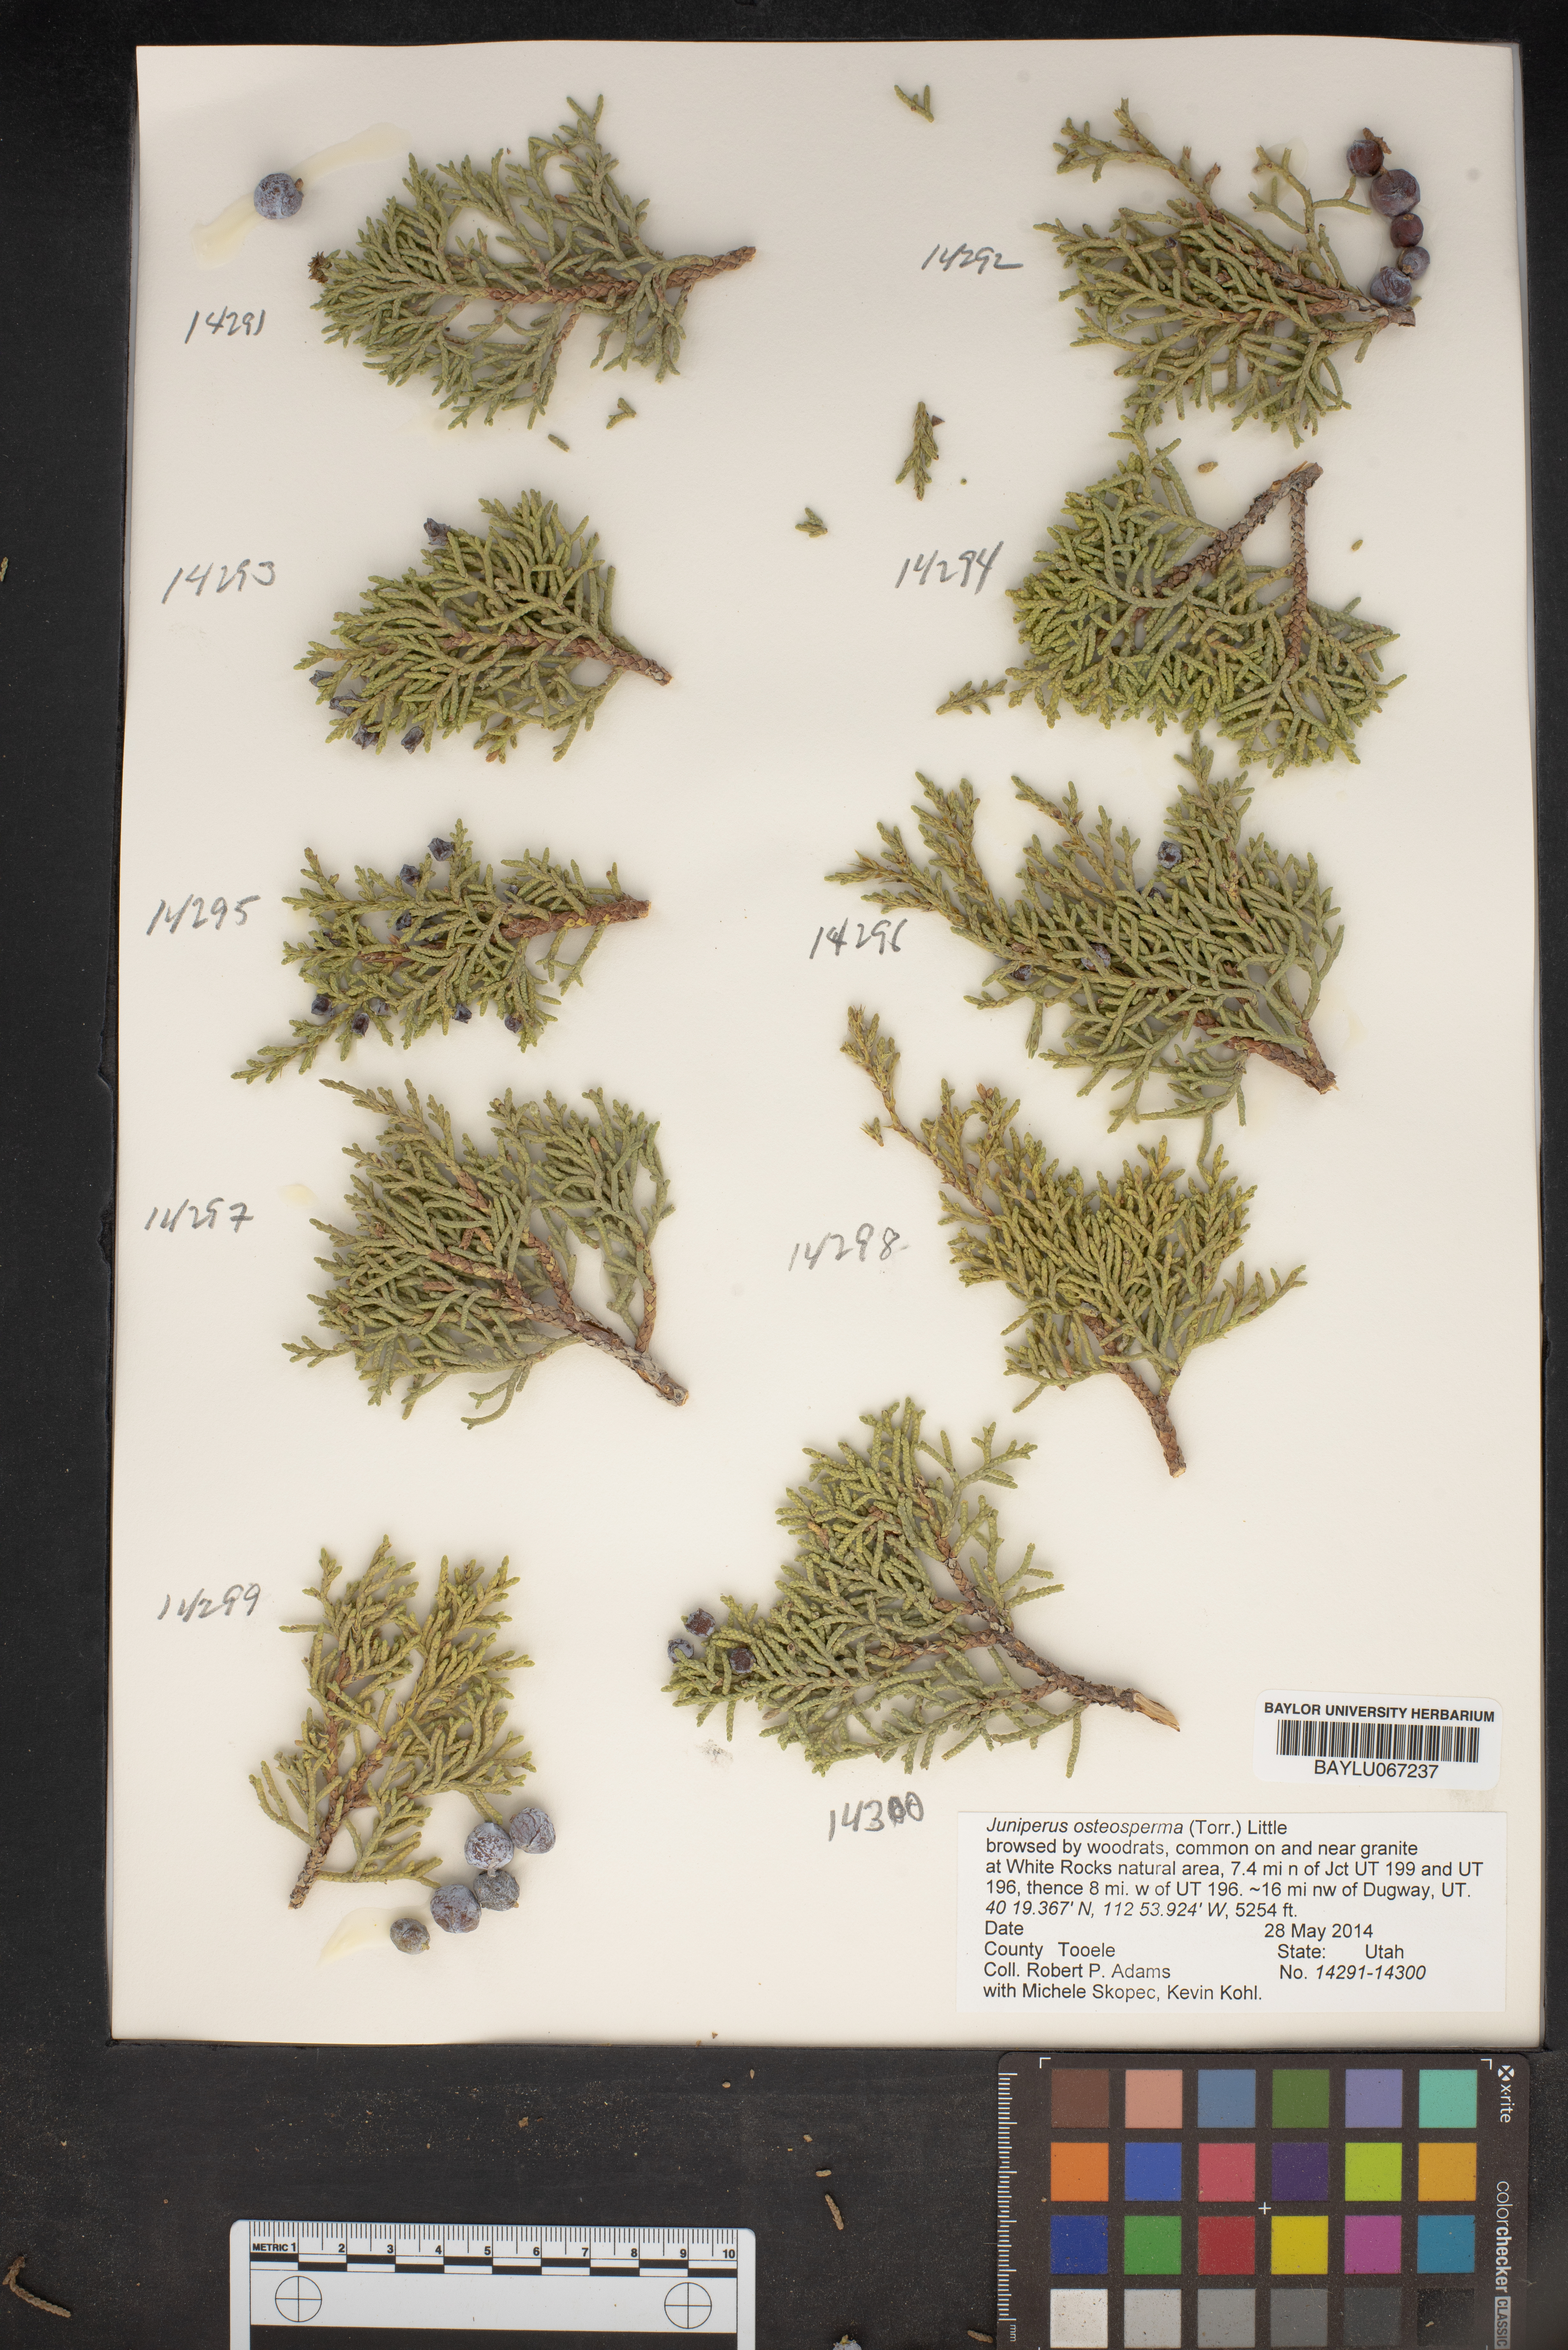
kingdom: Plantae
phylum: Tracheophyta
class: Pinopsida
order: Pinales
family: Cupressaceae
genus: Juniperus
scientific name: Juniperus osteosperma
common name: Utah juniper
